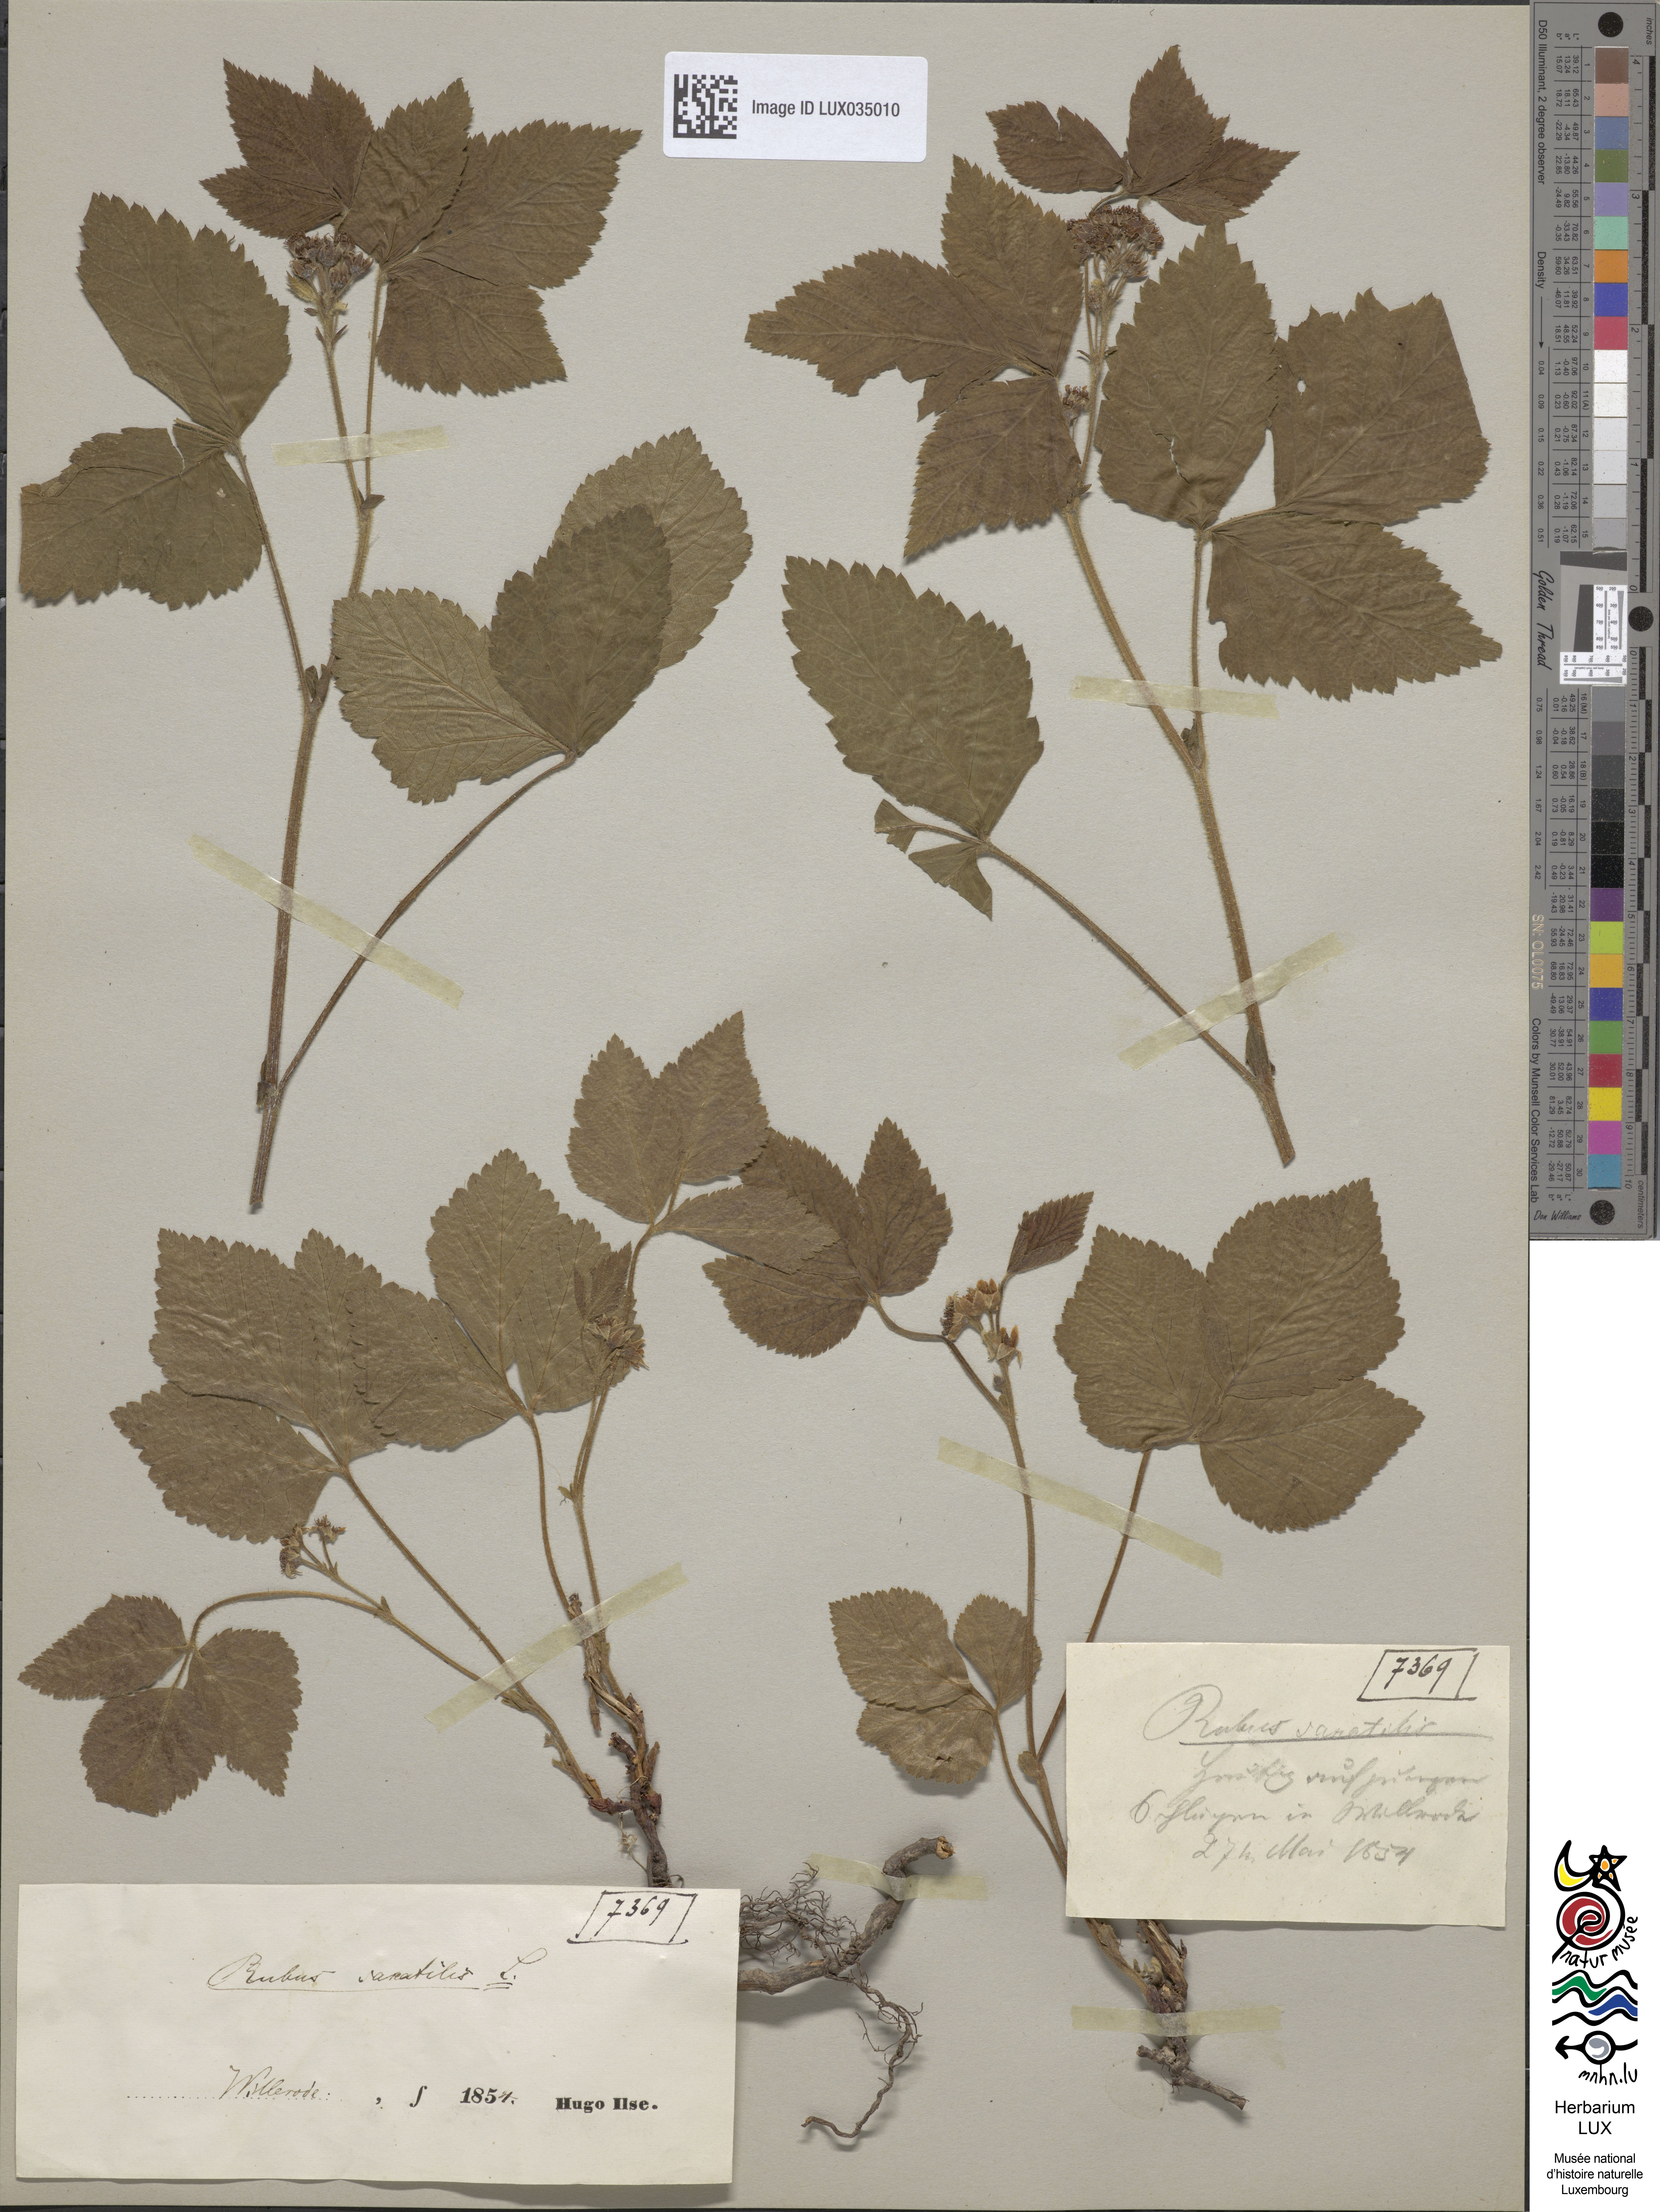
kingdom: Plantae
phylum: Tracheophyta
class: Magnoliopsida
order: Rosales
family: Rosaceae
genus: Rubus
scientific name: Rubus saxatilis
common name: Stone bramble
